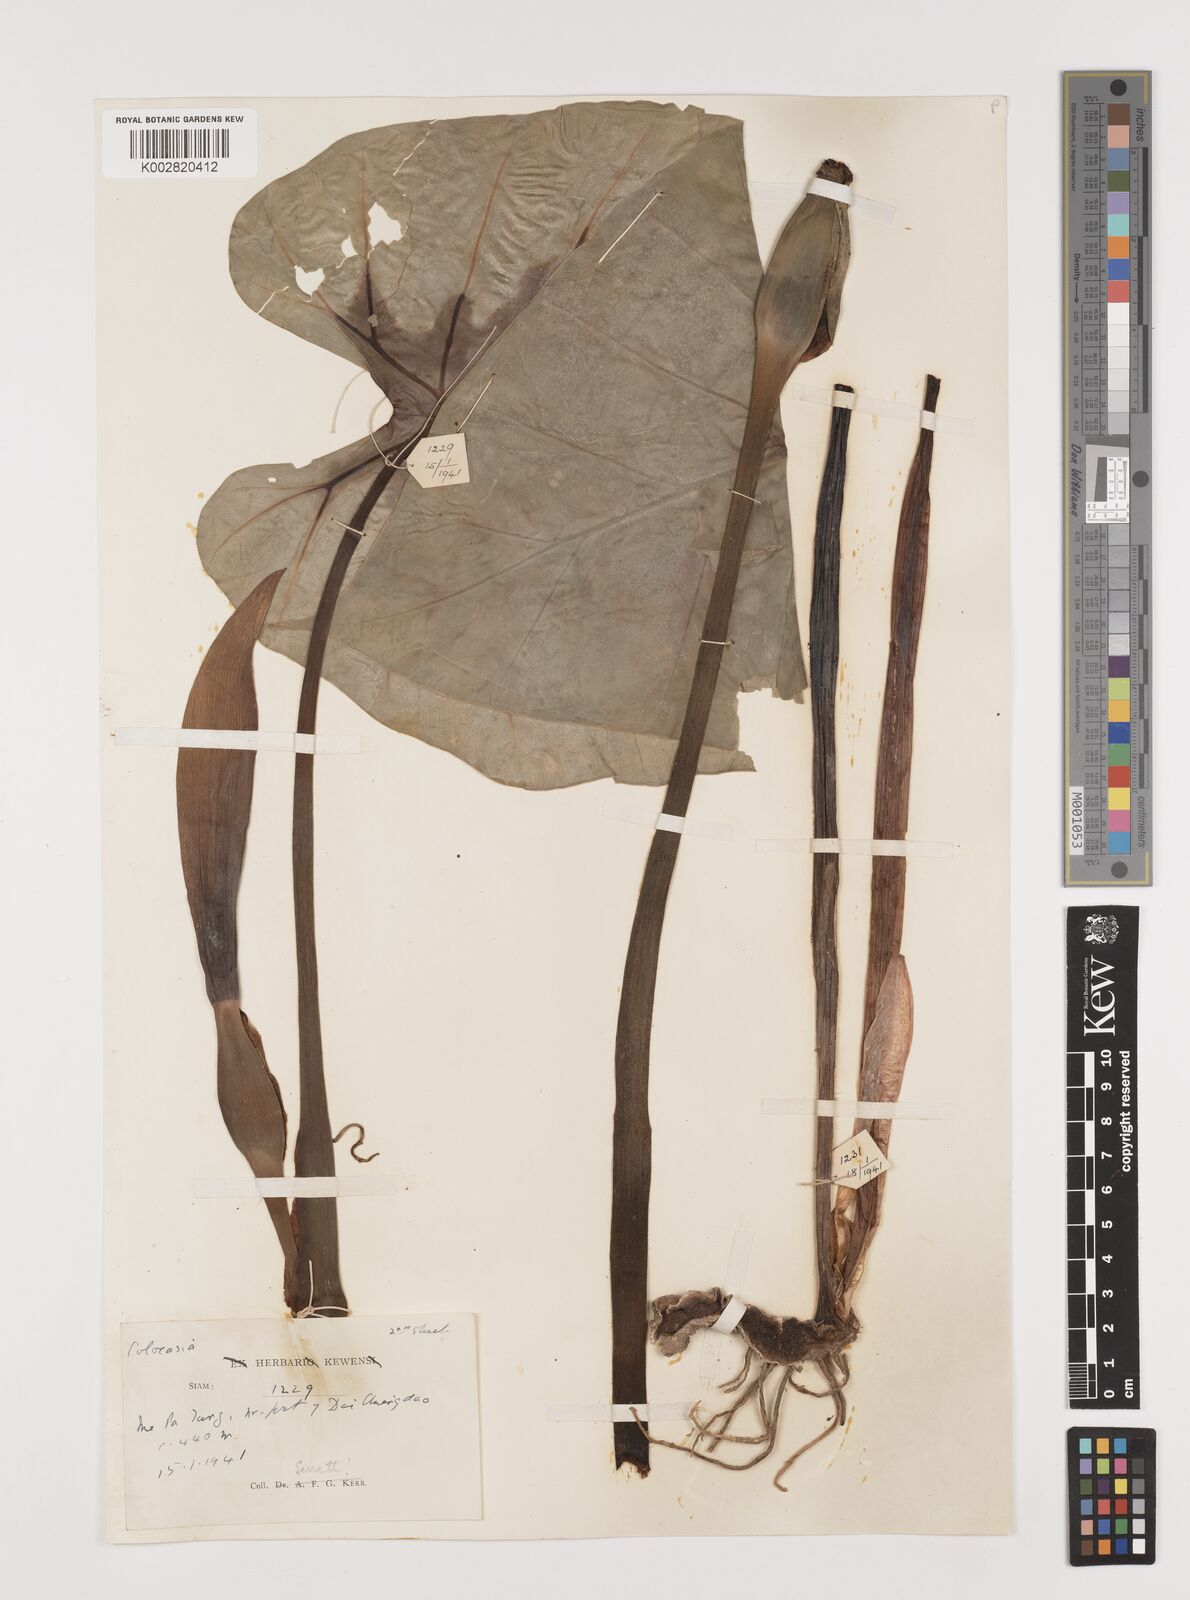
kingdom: Plantae
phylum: Tracheophyta
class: Liliopsida
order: Alismatales
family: Araceae
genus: Colocasia
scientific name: Colocasia esculenta
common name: Taro
